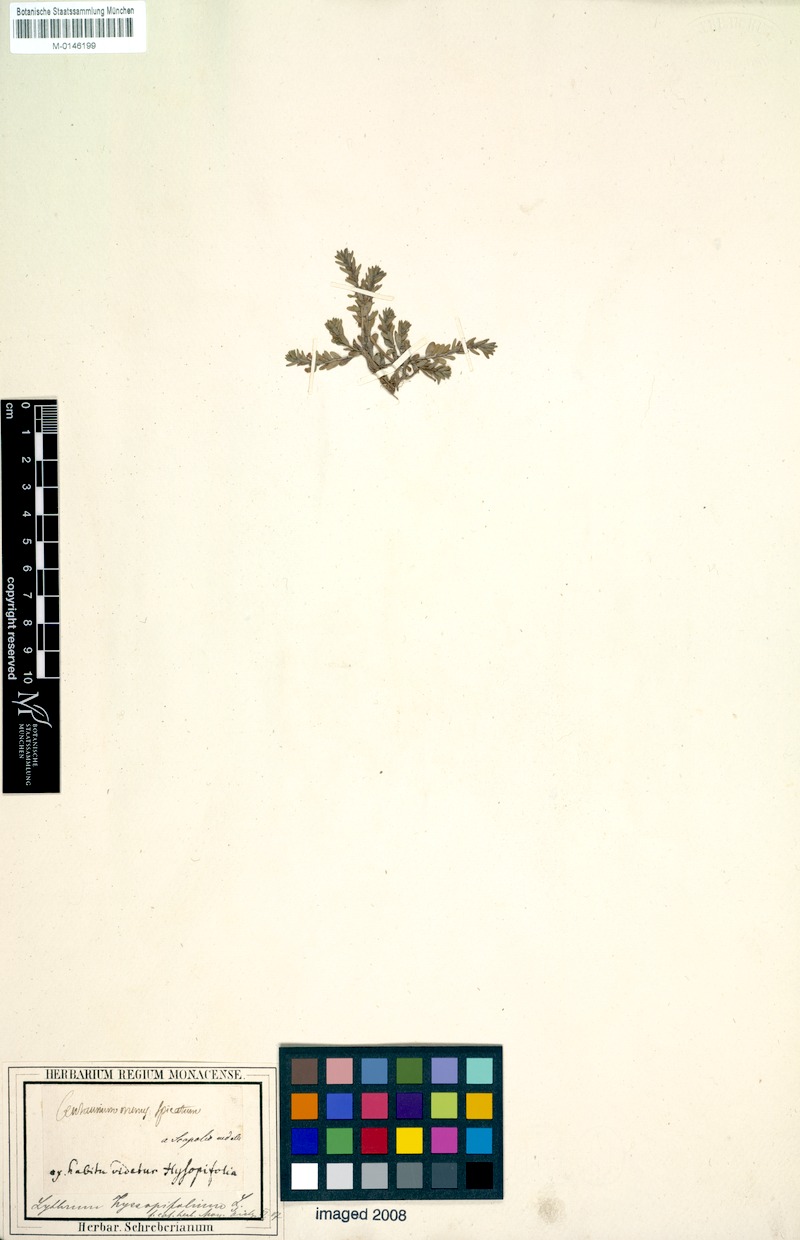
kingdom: Plantae
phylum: Tracheophyta
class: Magnoliopsida
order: Myrtales
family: Lythraceae
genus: Lythrum
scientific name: Lythrum hyssopifolia
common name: Grass-poly
